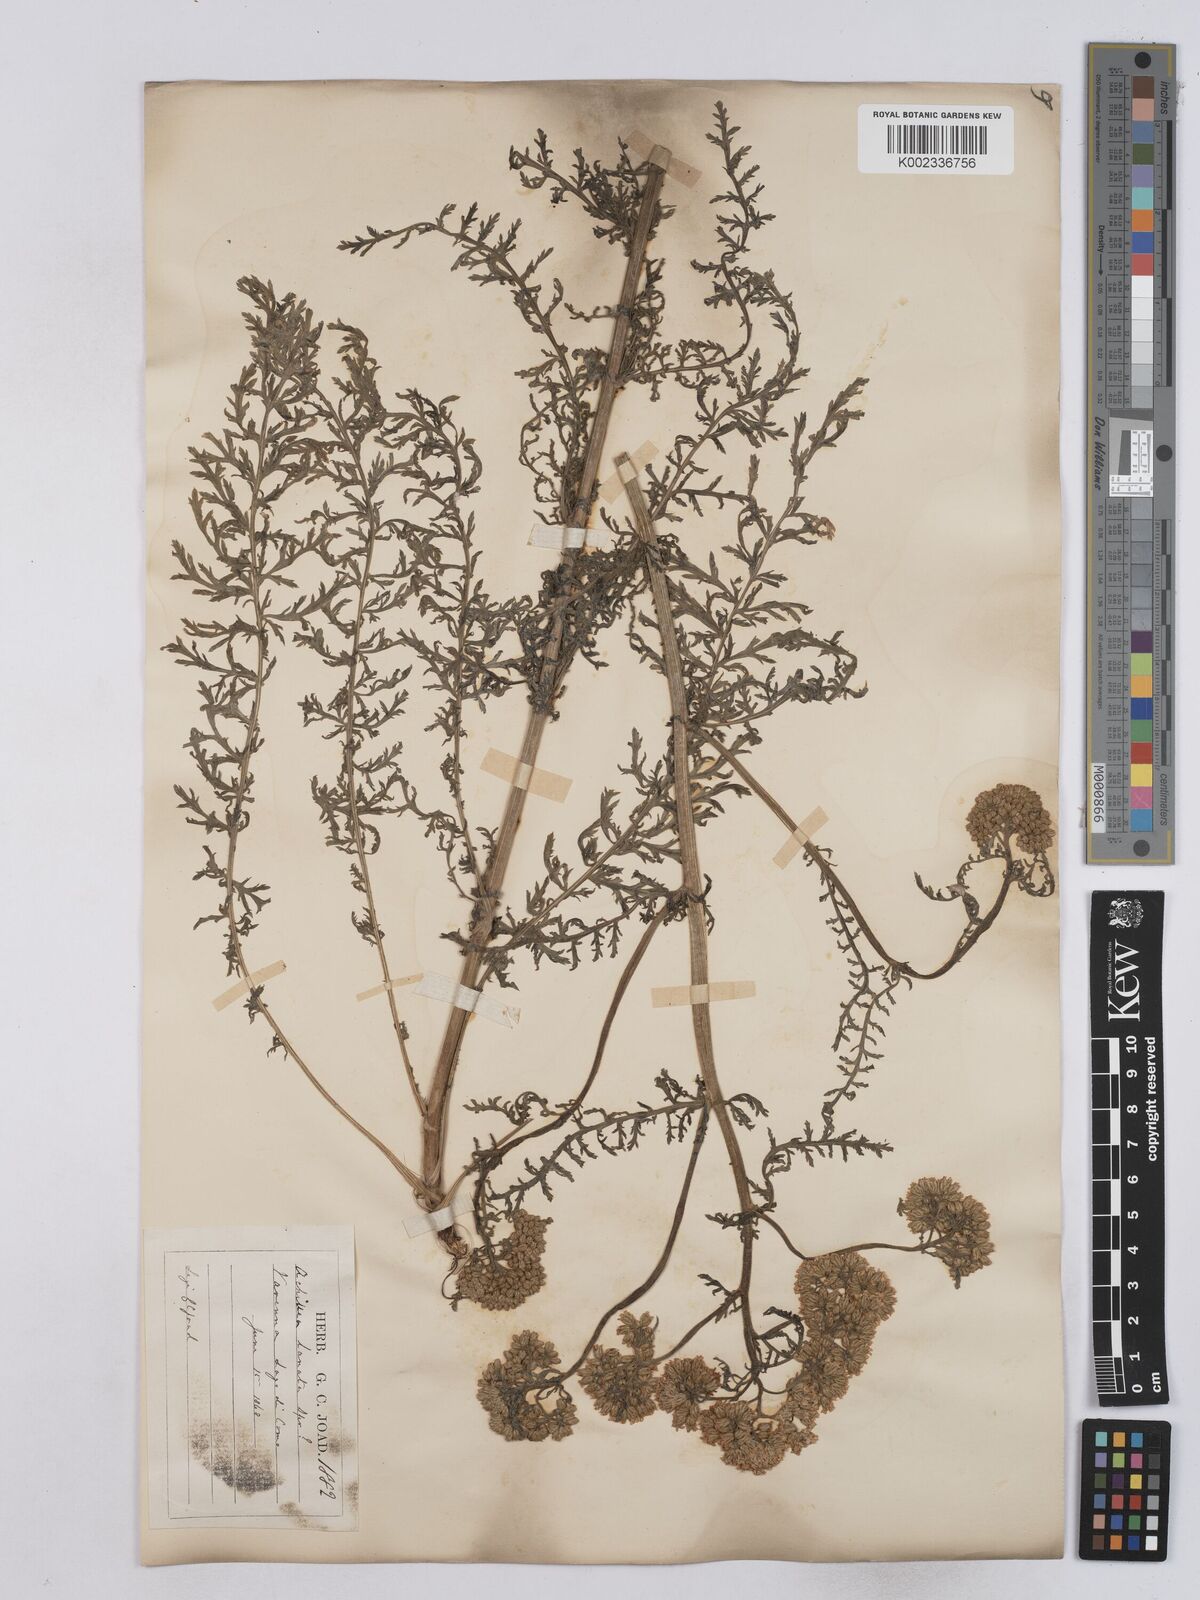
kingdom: Plantae
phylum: Tracheophyta
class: Magnoliopsida
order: Asterales
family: Asteraceae
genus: Achillea
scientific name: Achillea setacea
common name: Bristly yarrow
